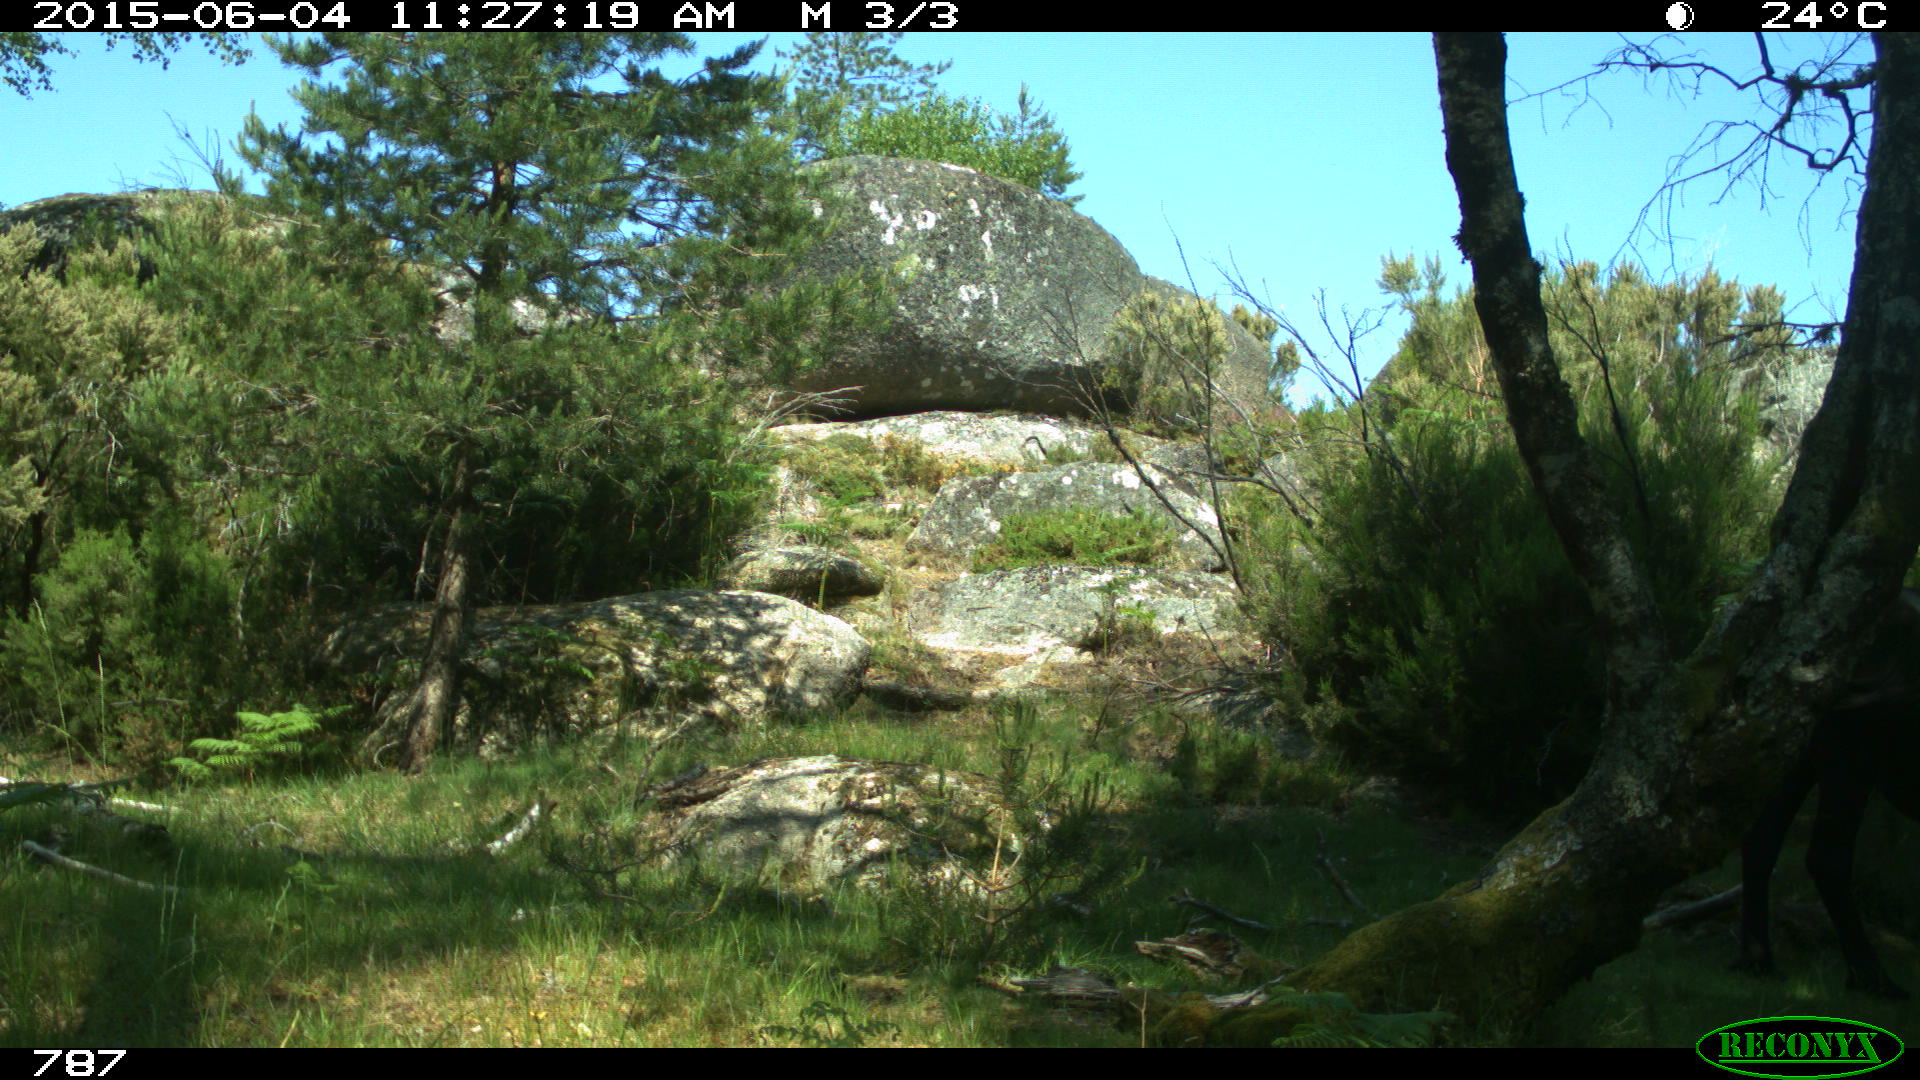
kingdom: Animalia
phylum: Chordata
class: Mammalia
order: Perissodactyla
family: Equidae
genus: Equus
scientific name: Equus caballus
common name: Horse
